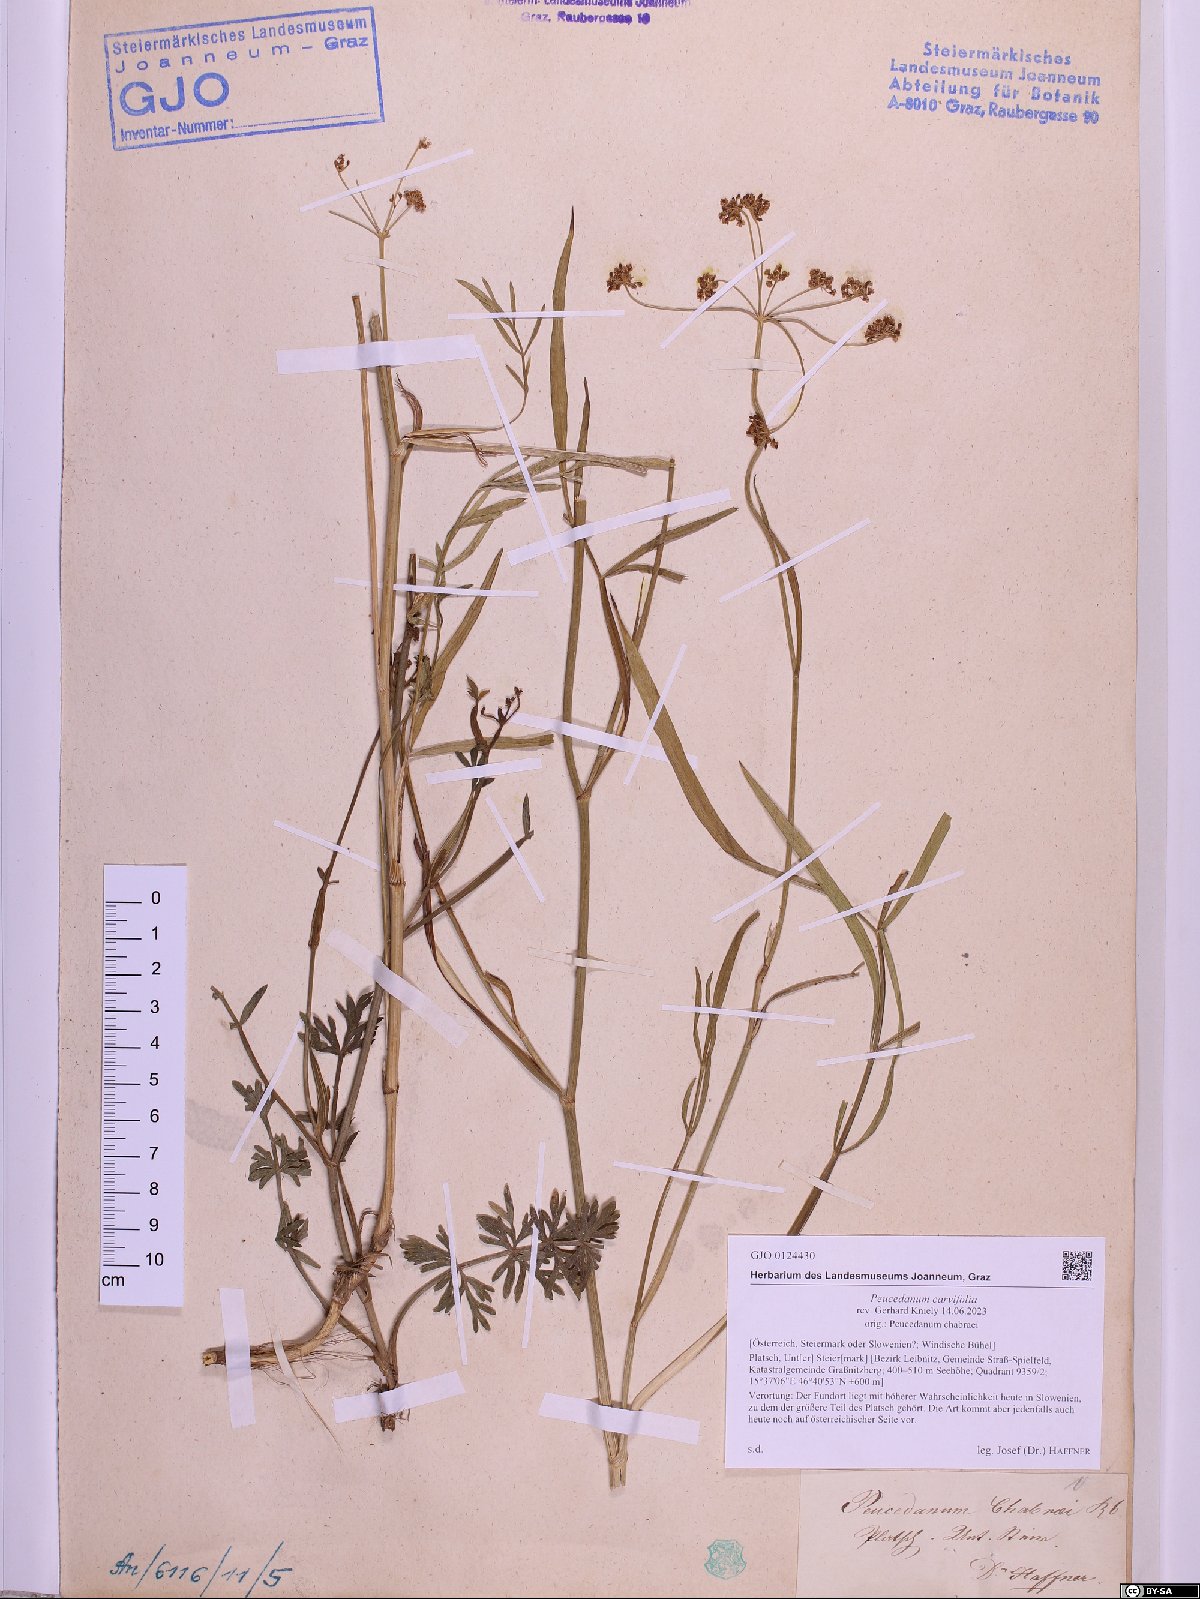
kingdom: Plantae
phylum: Tracheophyta
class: Magnoliopsida
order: Apiales
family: Apiaceae
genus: Dichoropetalum
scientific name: Dichoropetalum carvifolia
